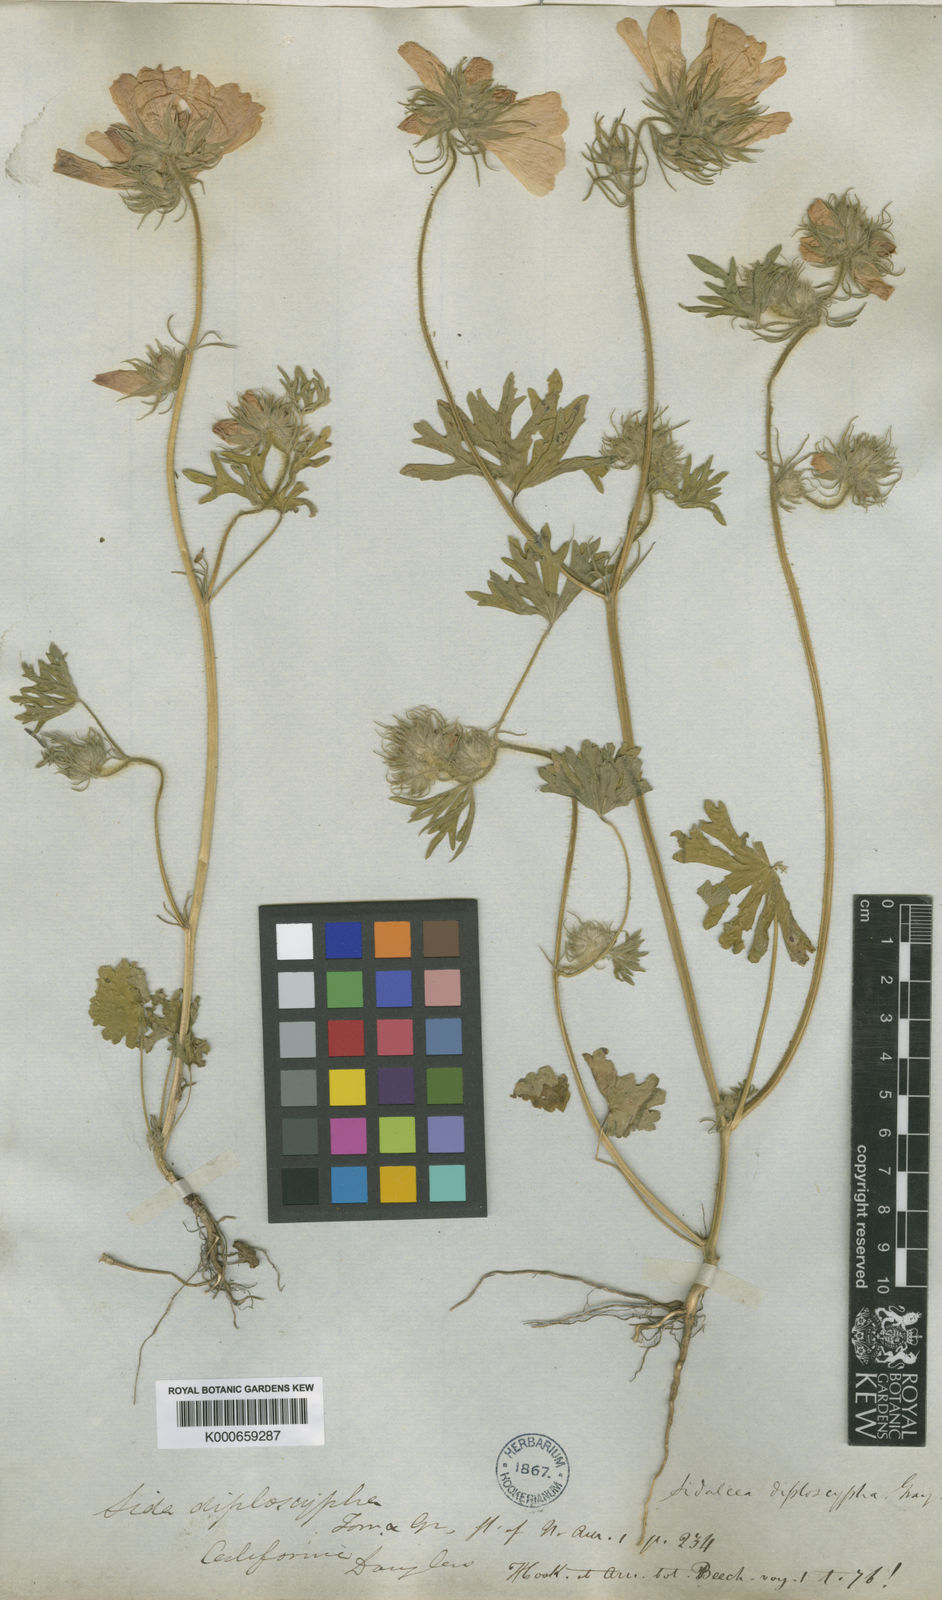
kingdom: Plantae
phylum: Tracheophyta
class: Magnoliopsida
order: Malvales
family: Malvaceae
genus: Sidalcea
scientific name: Sidalcea diploscypha
